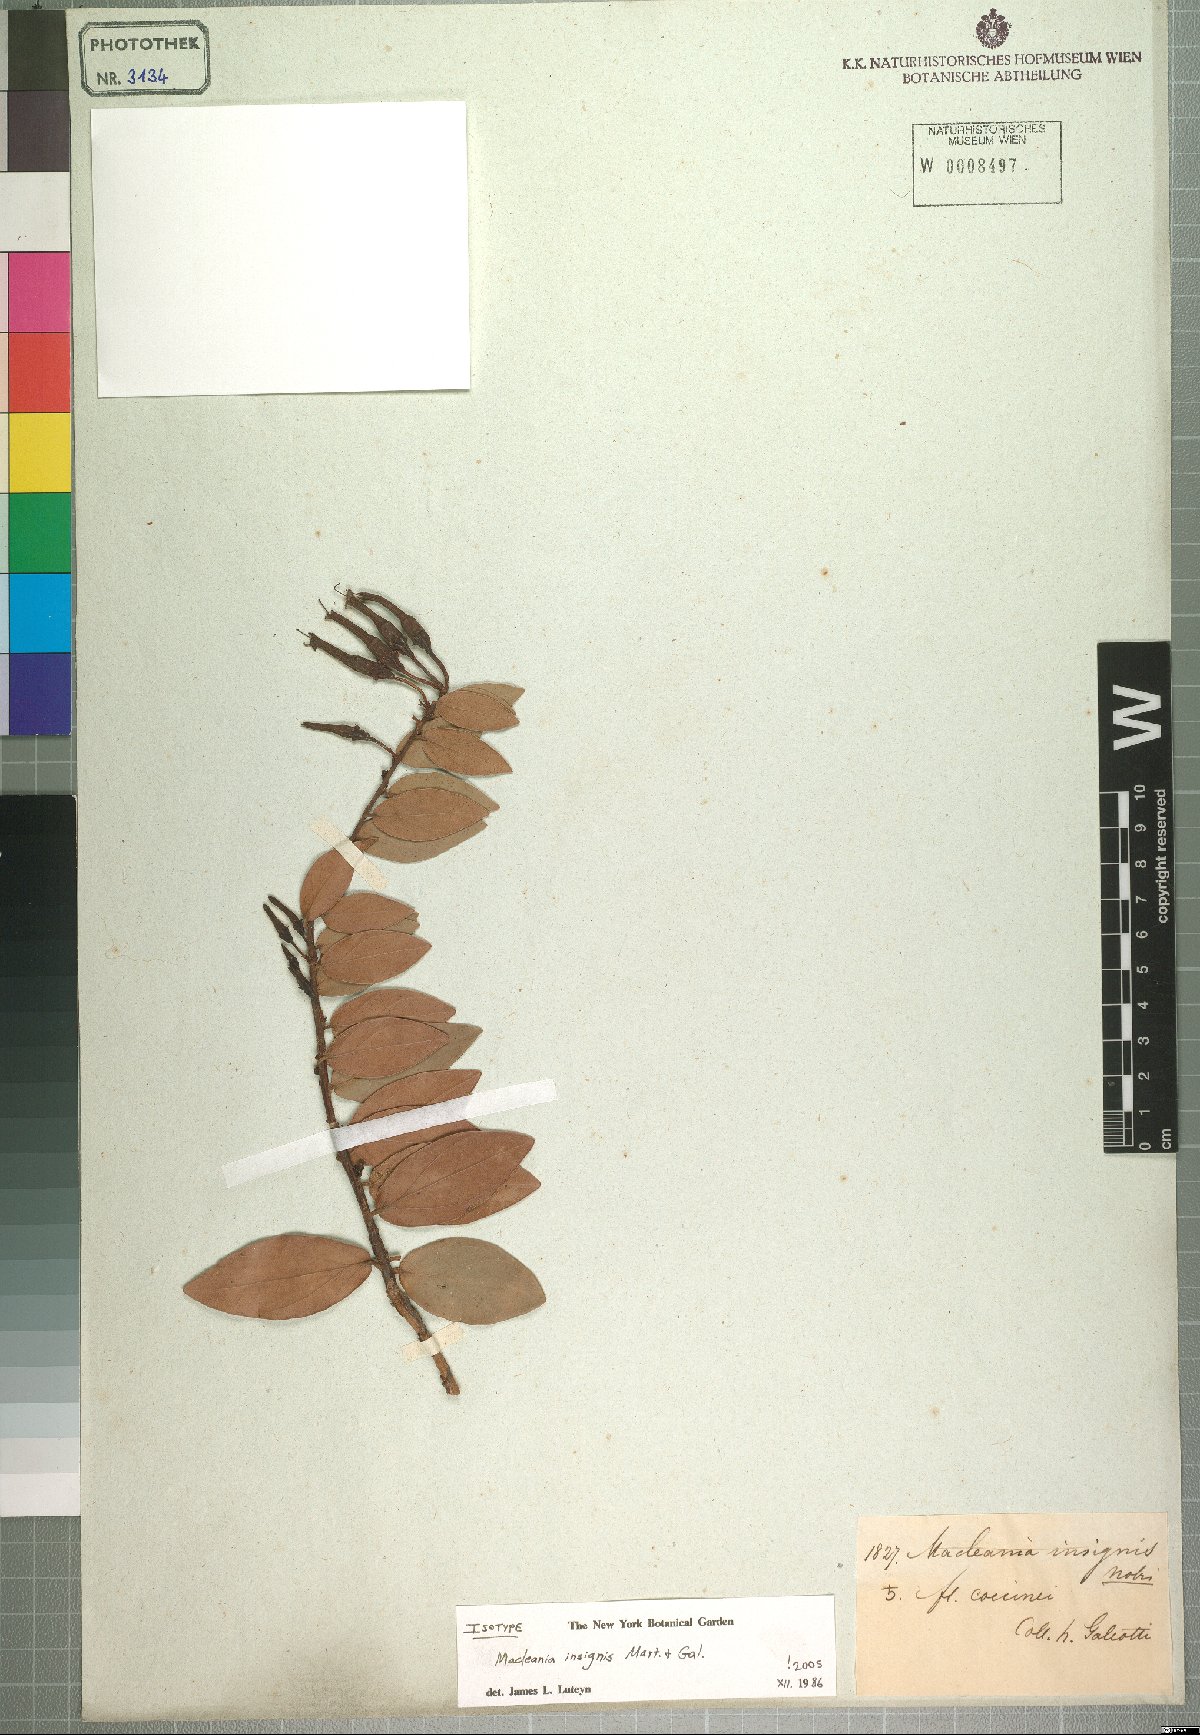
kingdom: Plantae
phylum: Tracheophyta
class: Magnoliopsida
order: Ericales
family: Ericaceae
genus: Macleania
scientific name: Macleania insignis
